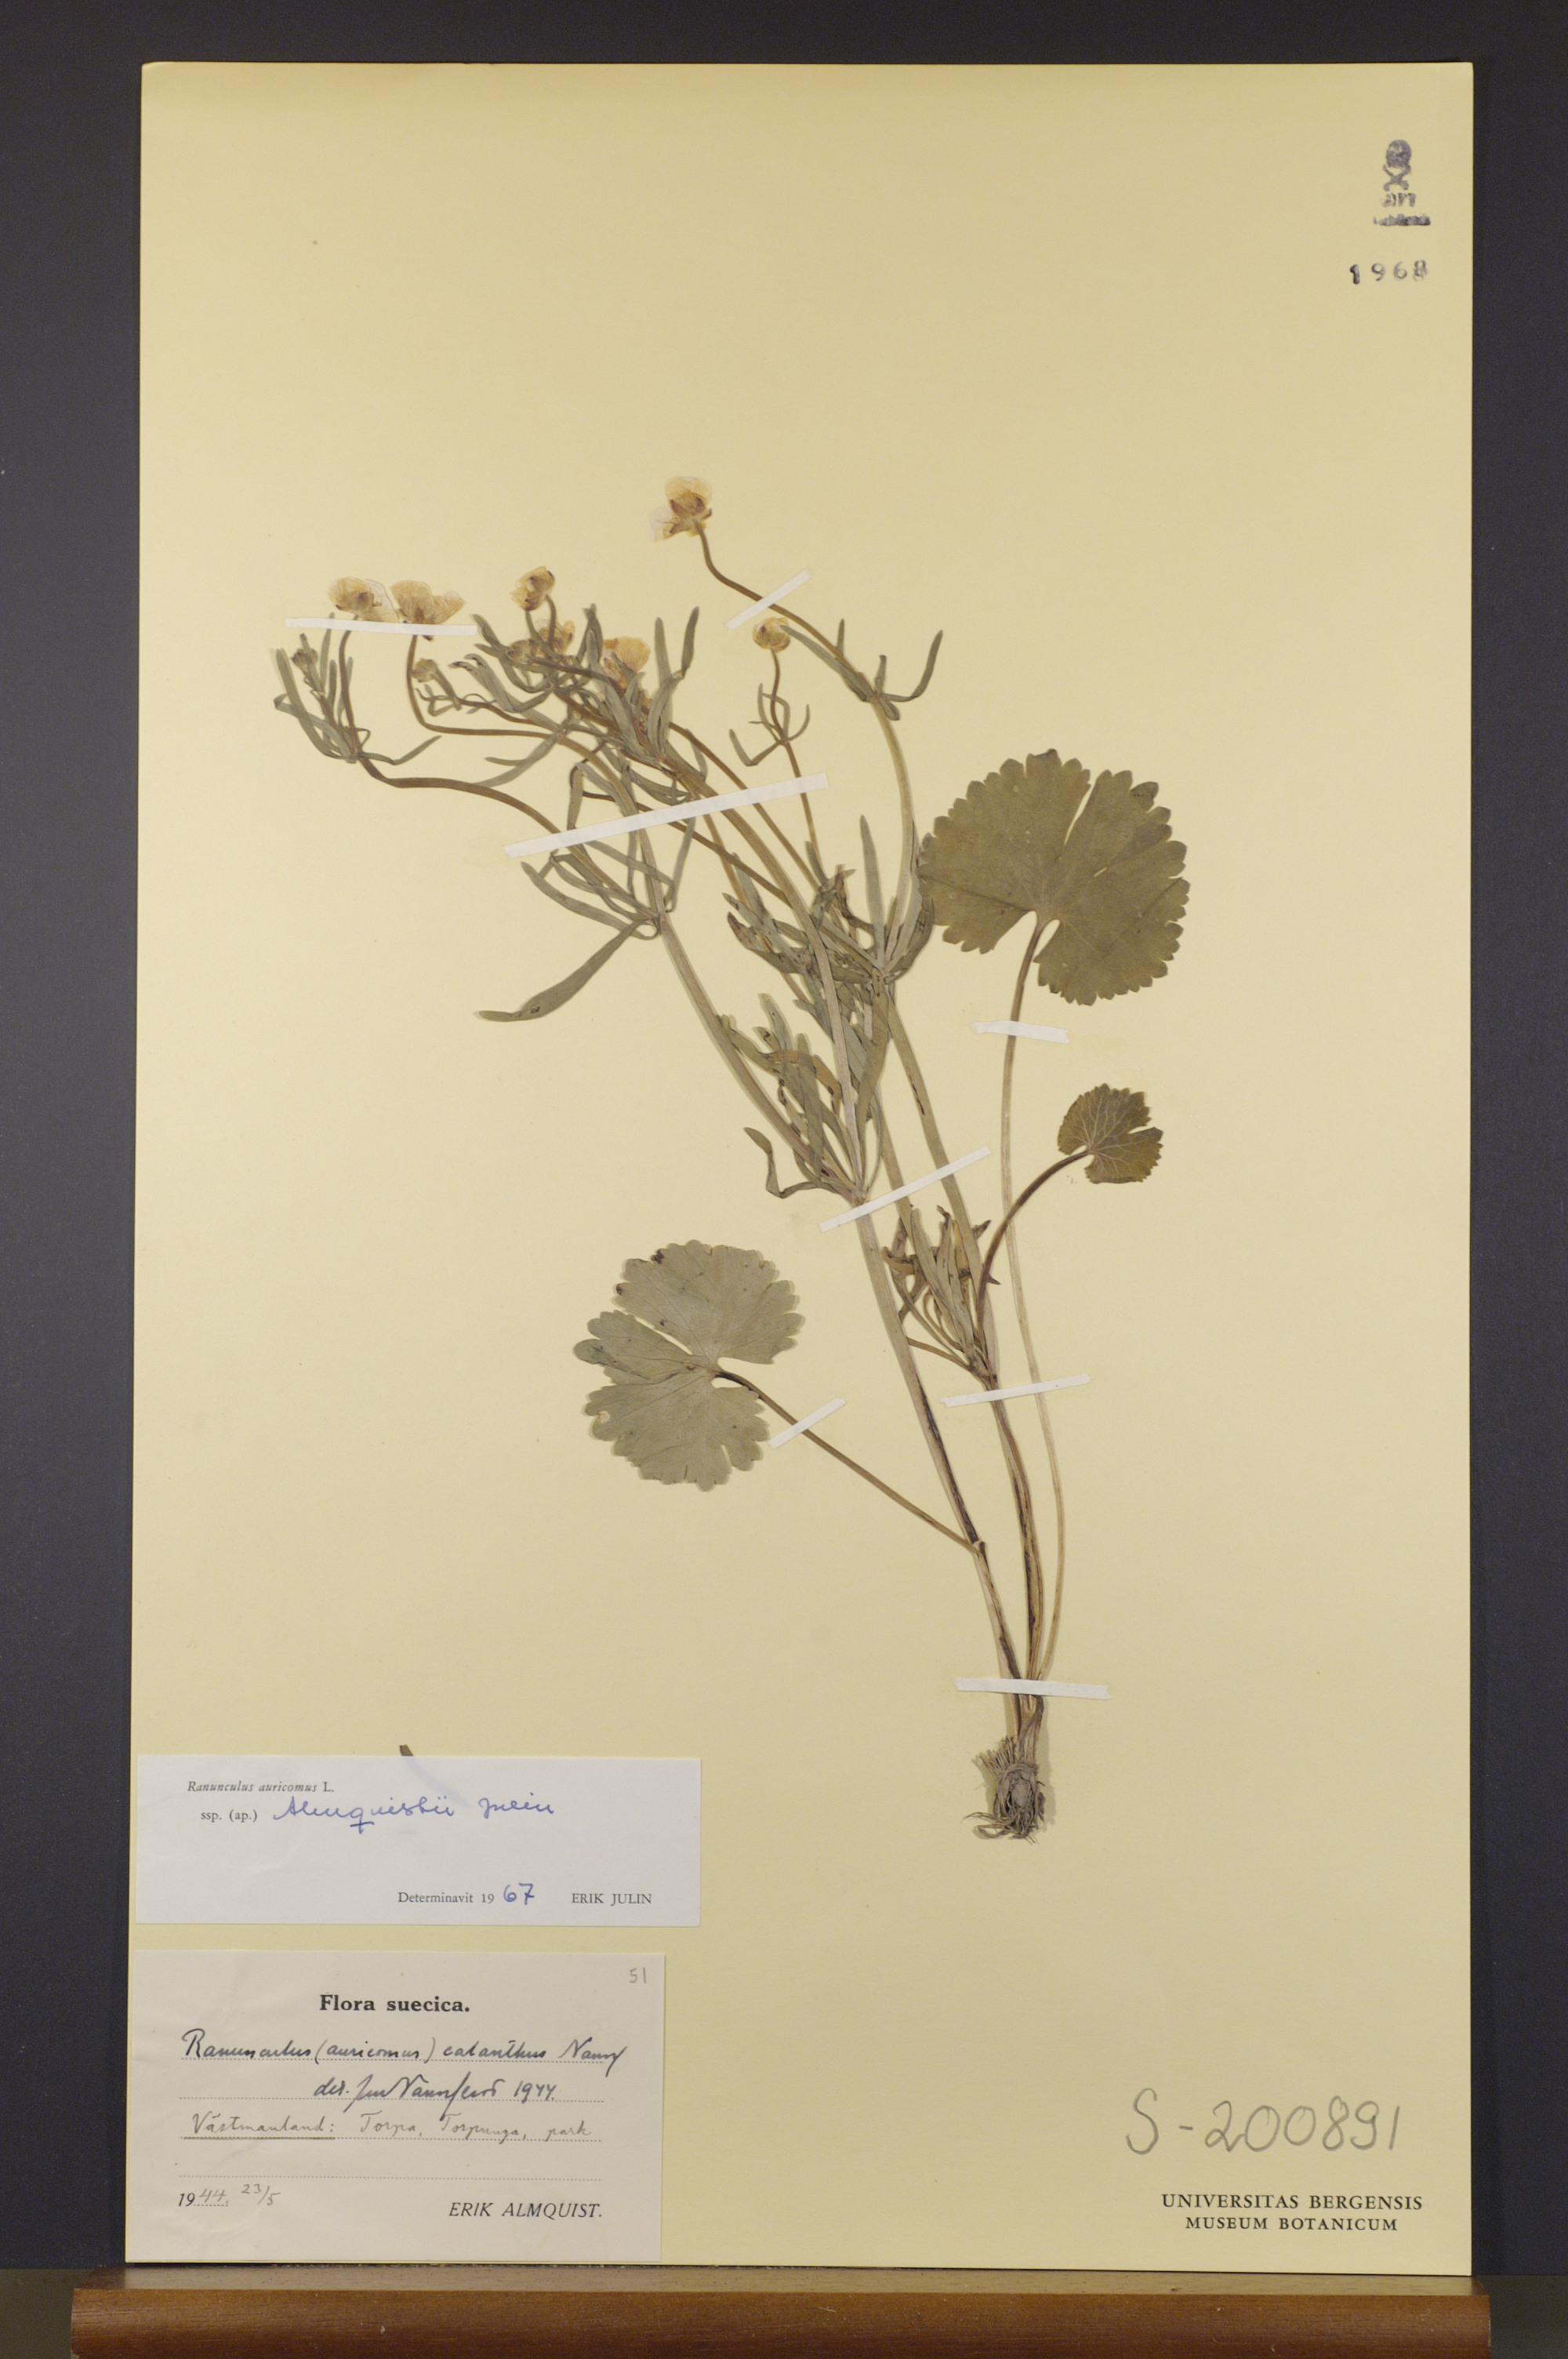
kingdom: Plantae
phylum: Tracheophyta
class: Magnoliopsida
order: Ranunculales
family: Ranunculaceae
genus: Ranunculus
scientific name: Ranunculus almquistii
